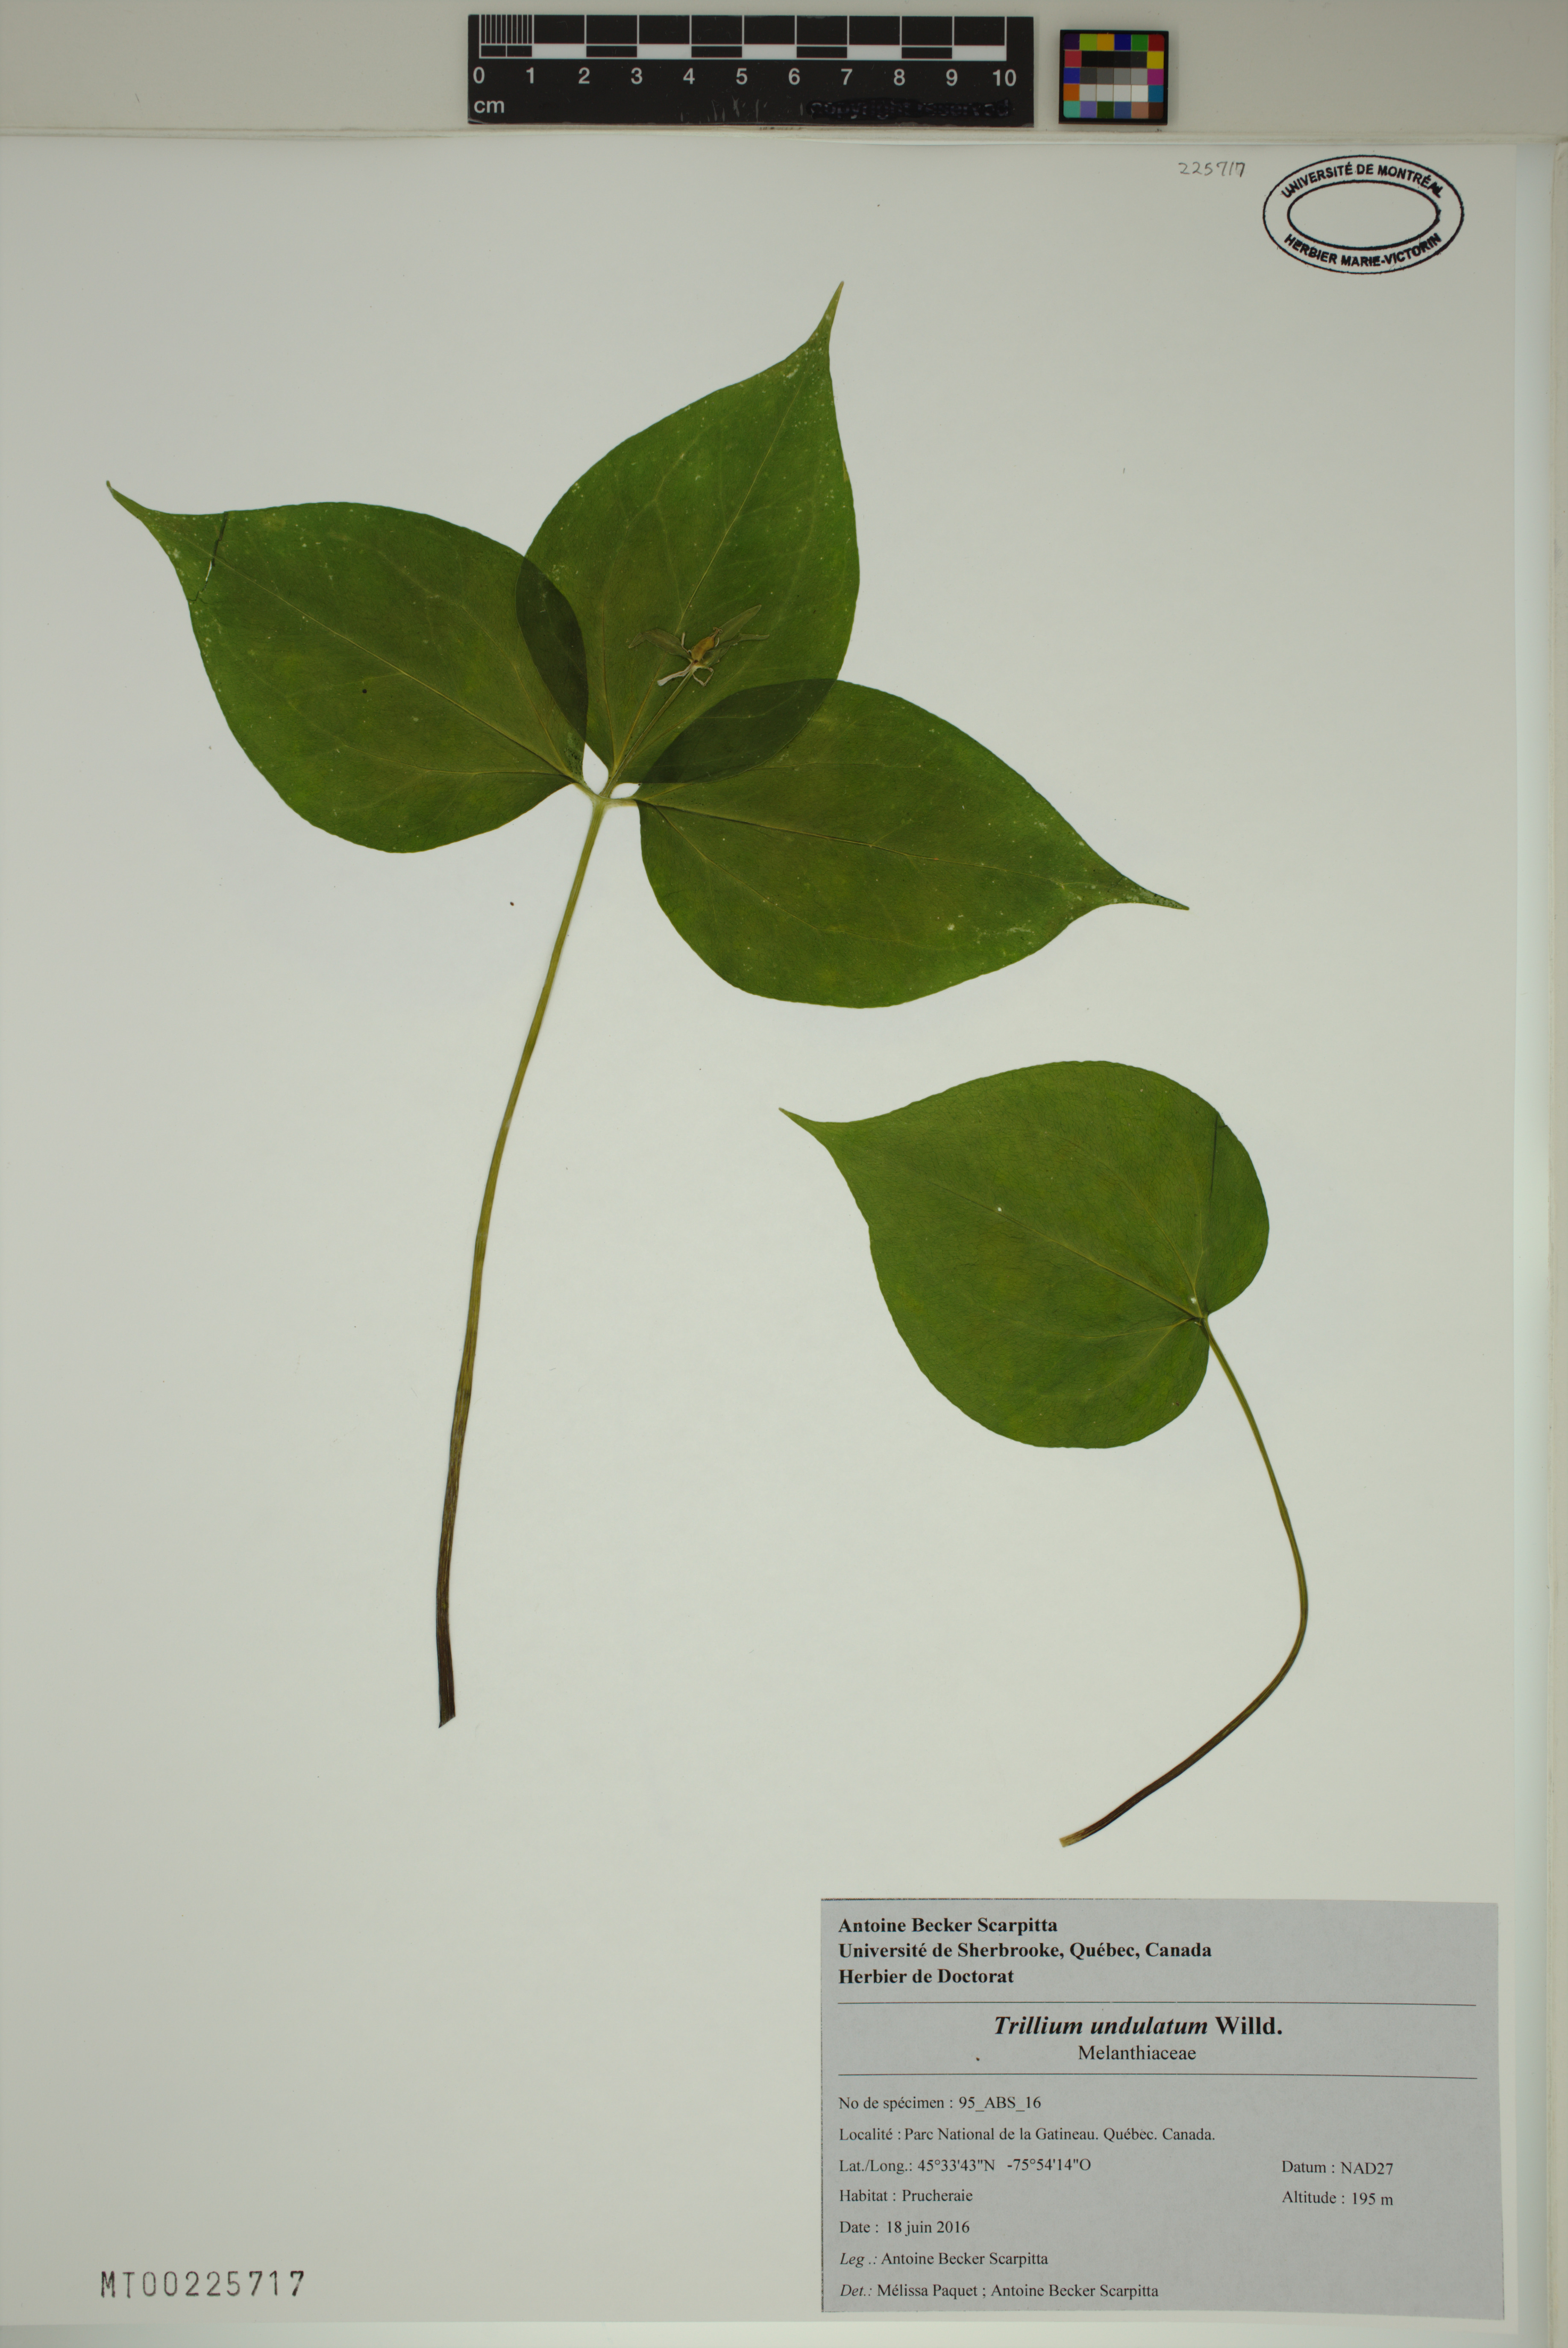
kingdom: Plantae
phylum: Tracheophyta
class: Liliopsida
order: Liliales
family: Melanthiaceae
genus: Trillium
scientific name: Trillium undulatum
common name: Paint trillium
